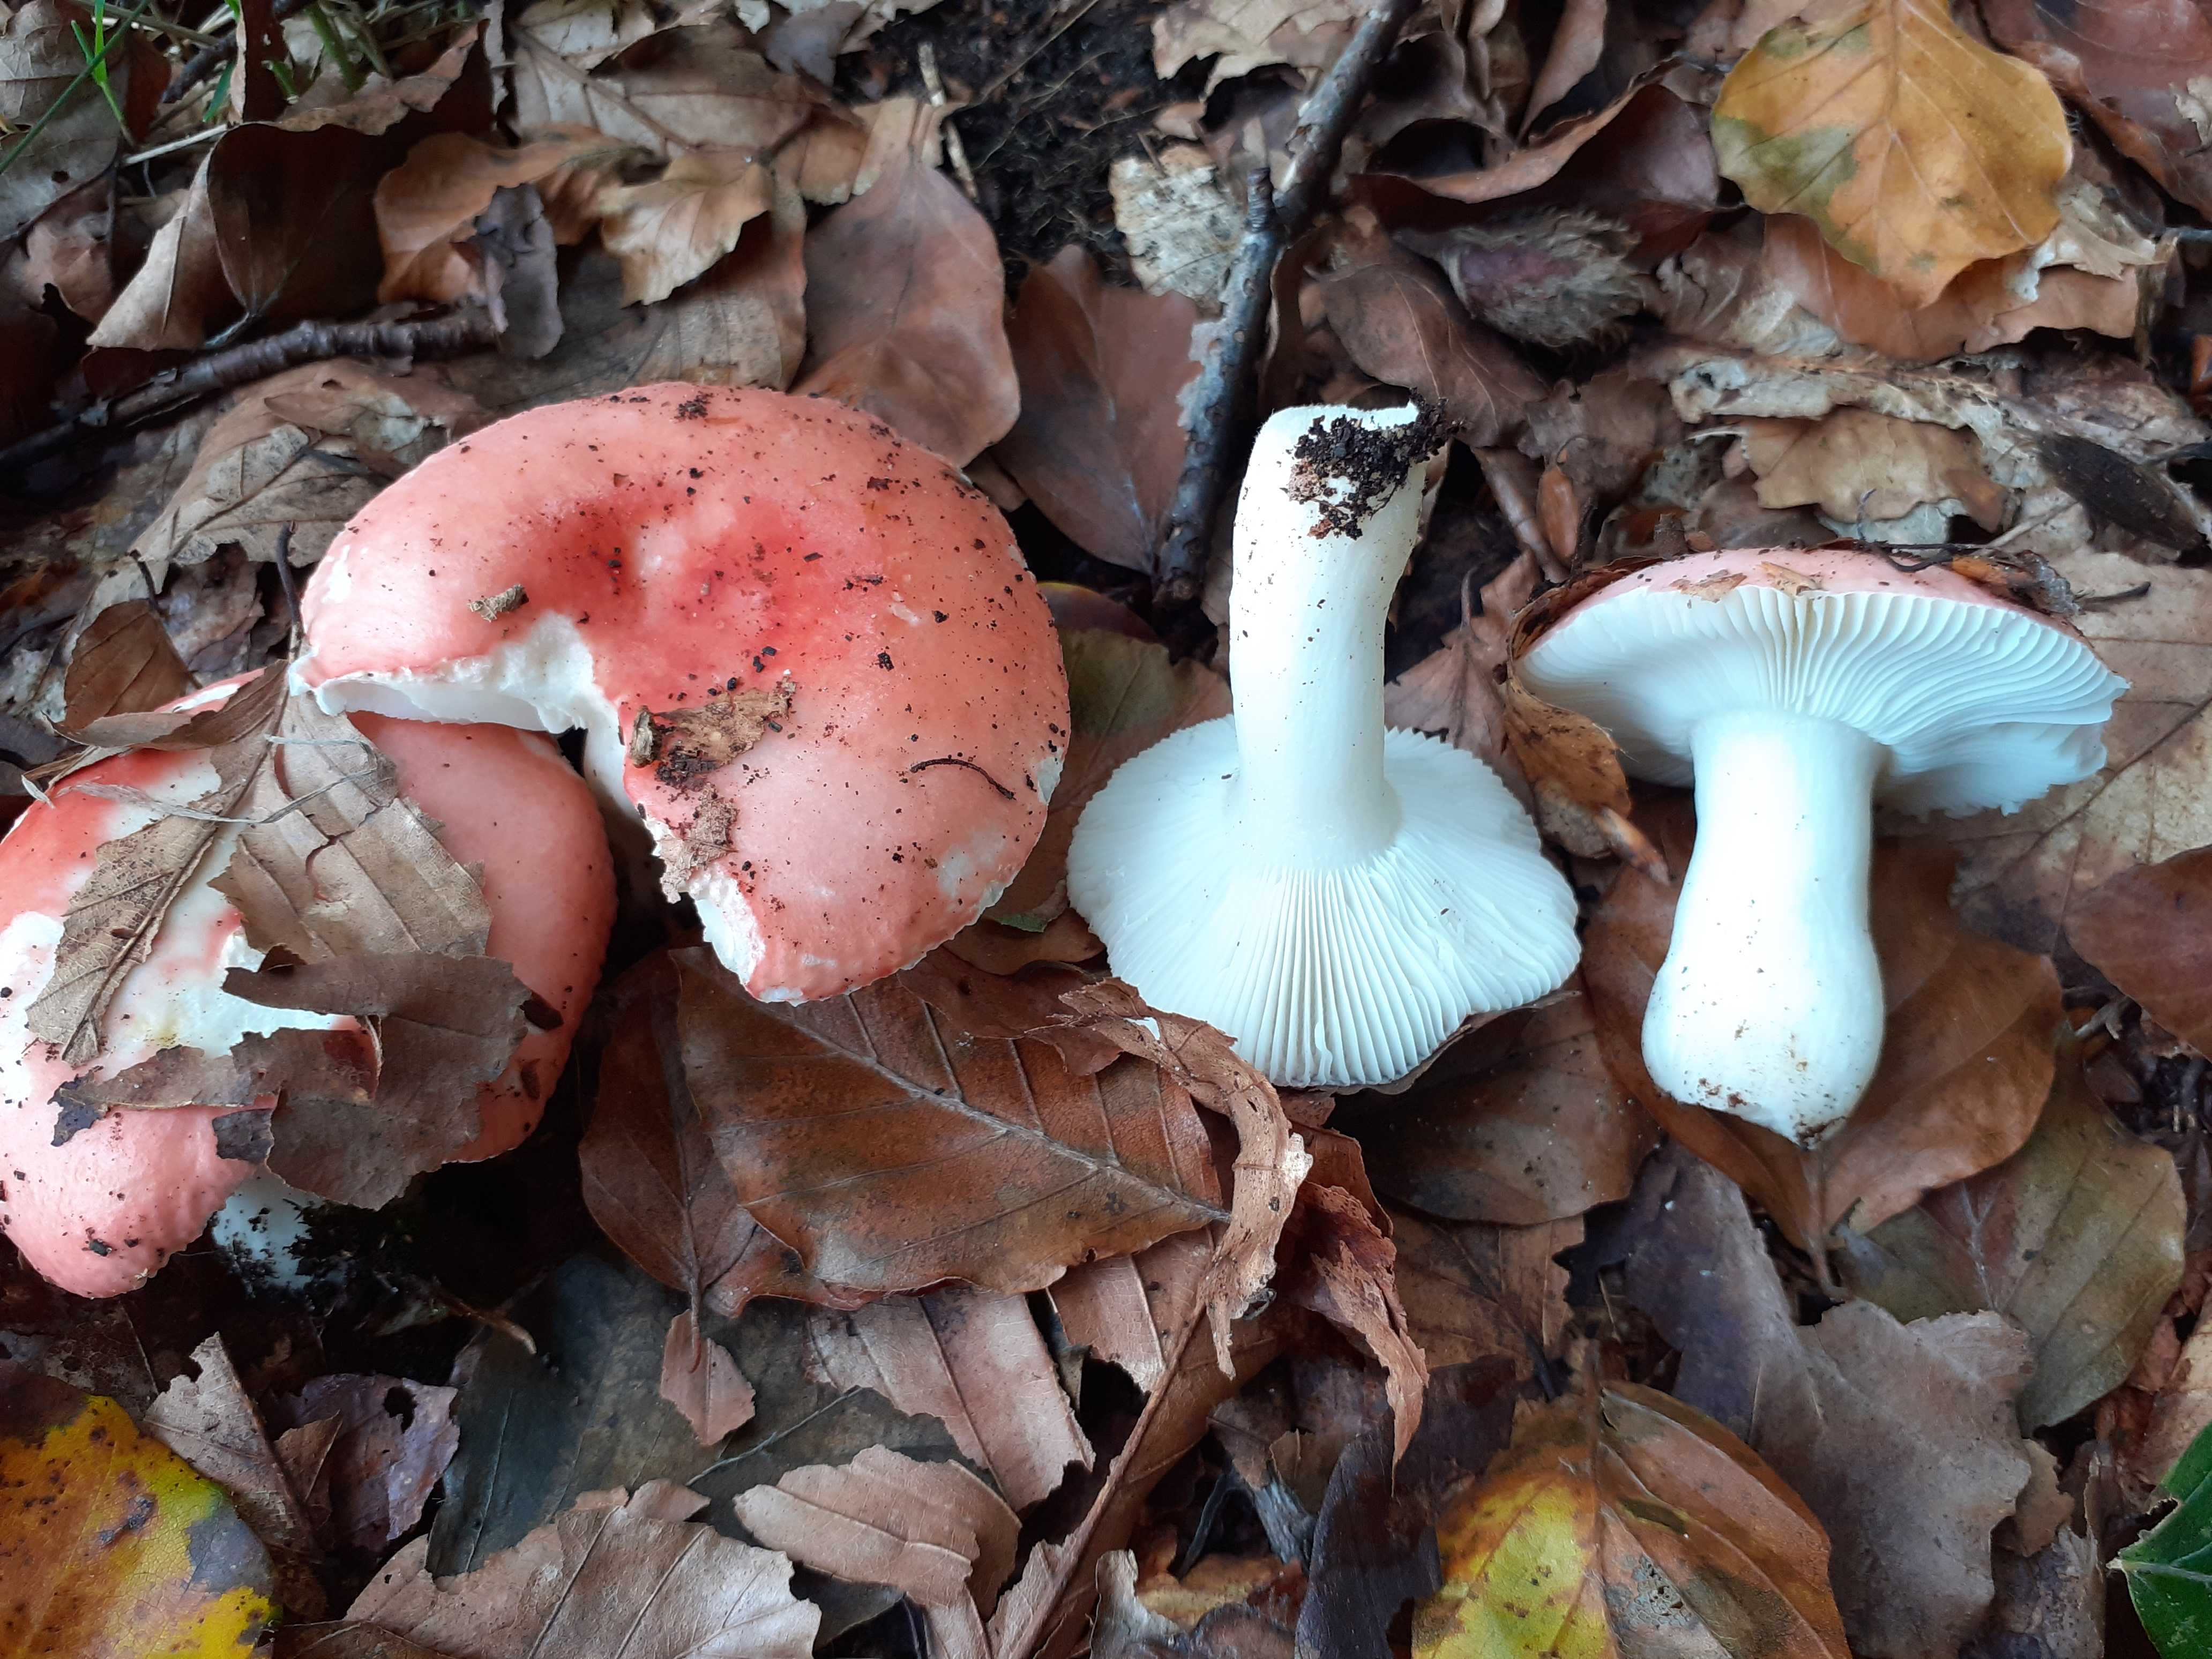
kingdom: Fungi
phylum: Basidiomycota
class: Agaricomycetes
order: Russulales
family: Russulaceae
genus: Russula
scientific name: Russula nobilis
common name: lille gift-skørhat
